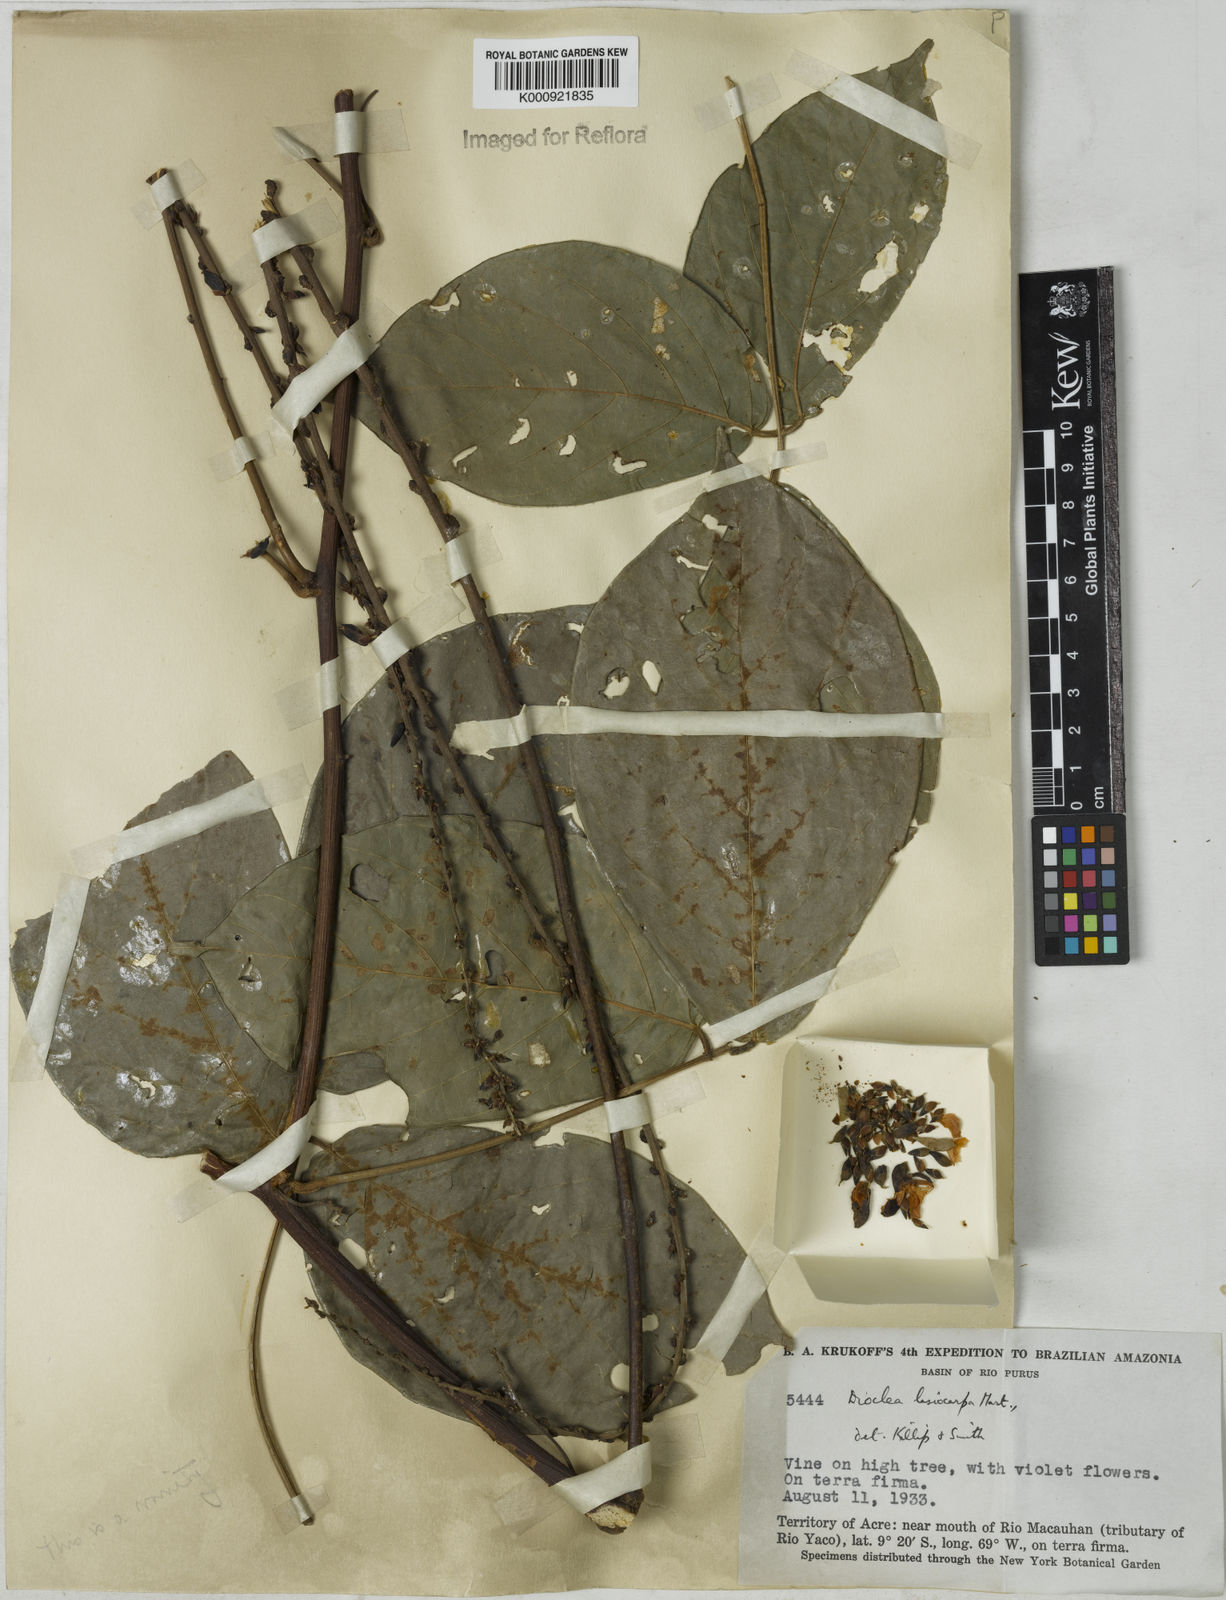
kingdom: Plantae
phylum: Tracheophyta
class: Magnoliopsida
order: Fabales
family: Fabaceae
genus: Dioclea
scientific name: Dioclea virgata
